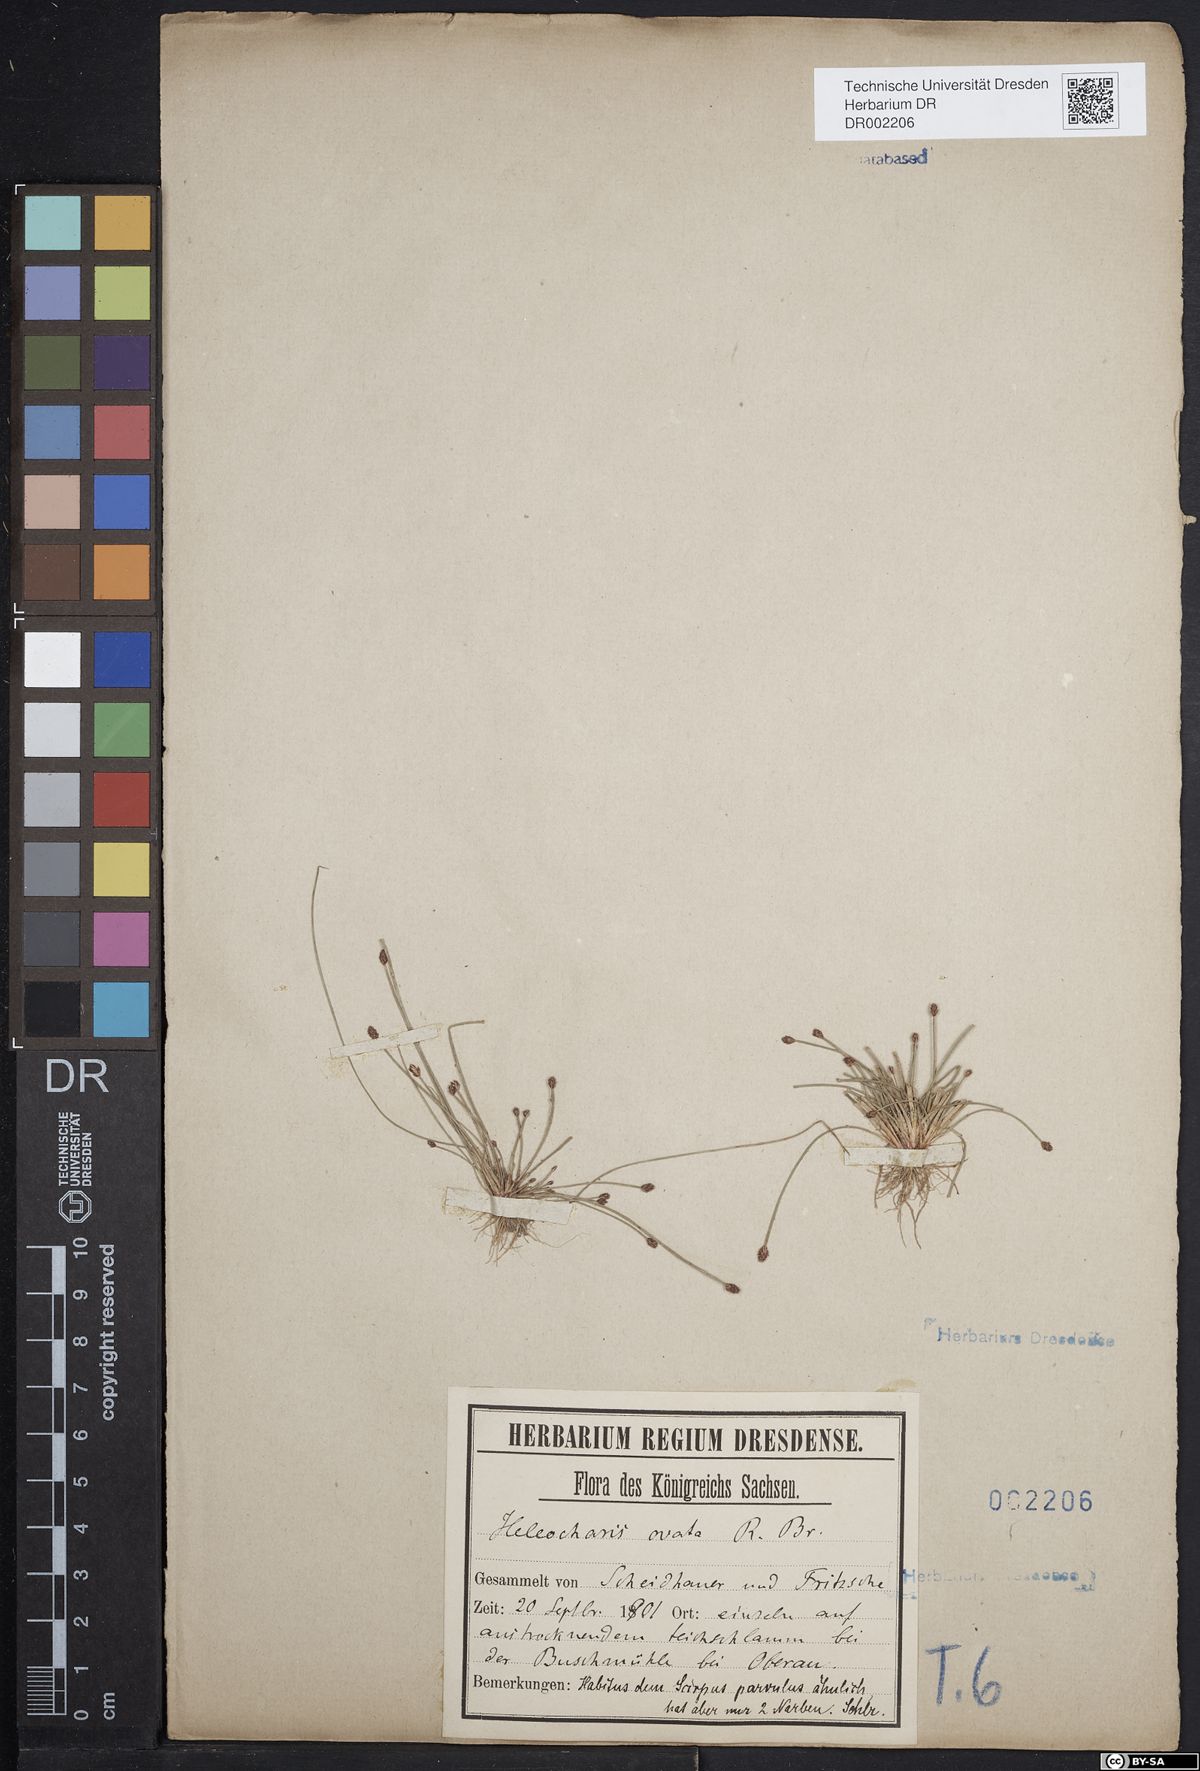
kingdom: Plantae
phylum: Tracheophyta
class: Liliopsida
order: Poales
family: Cyperaceae
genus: Eleocharis
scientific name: Eleocharis ovata
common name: Oval spike-rush
